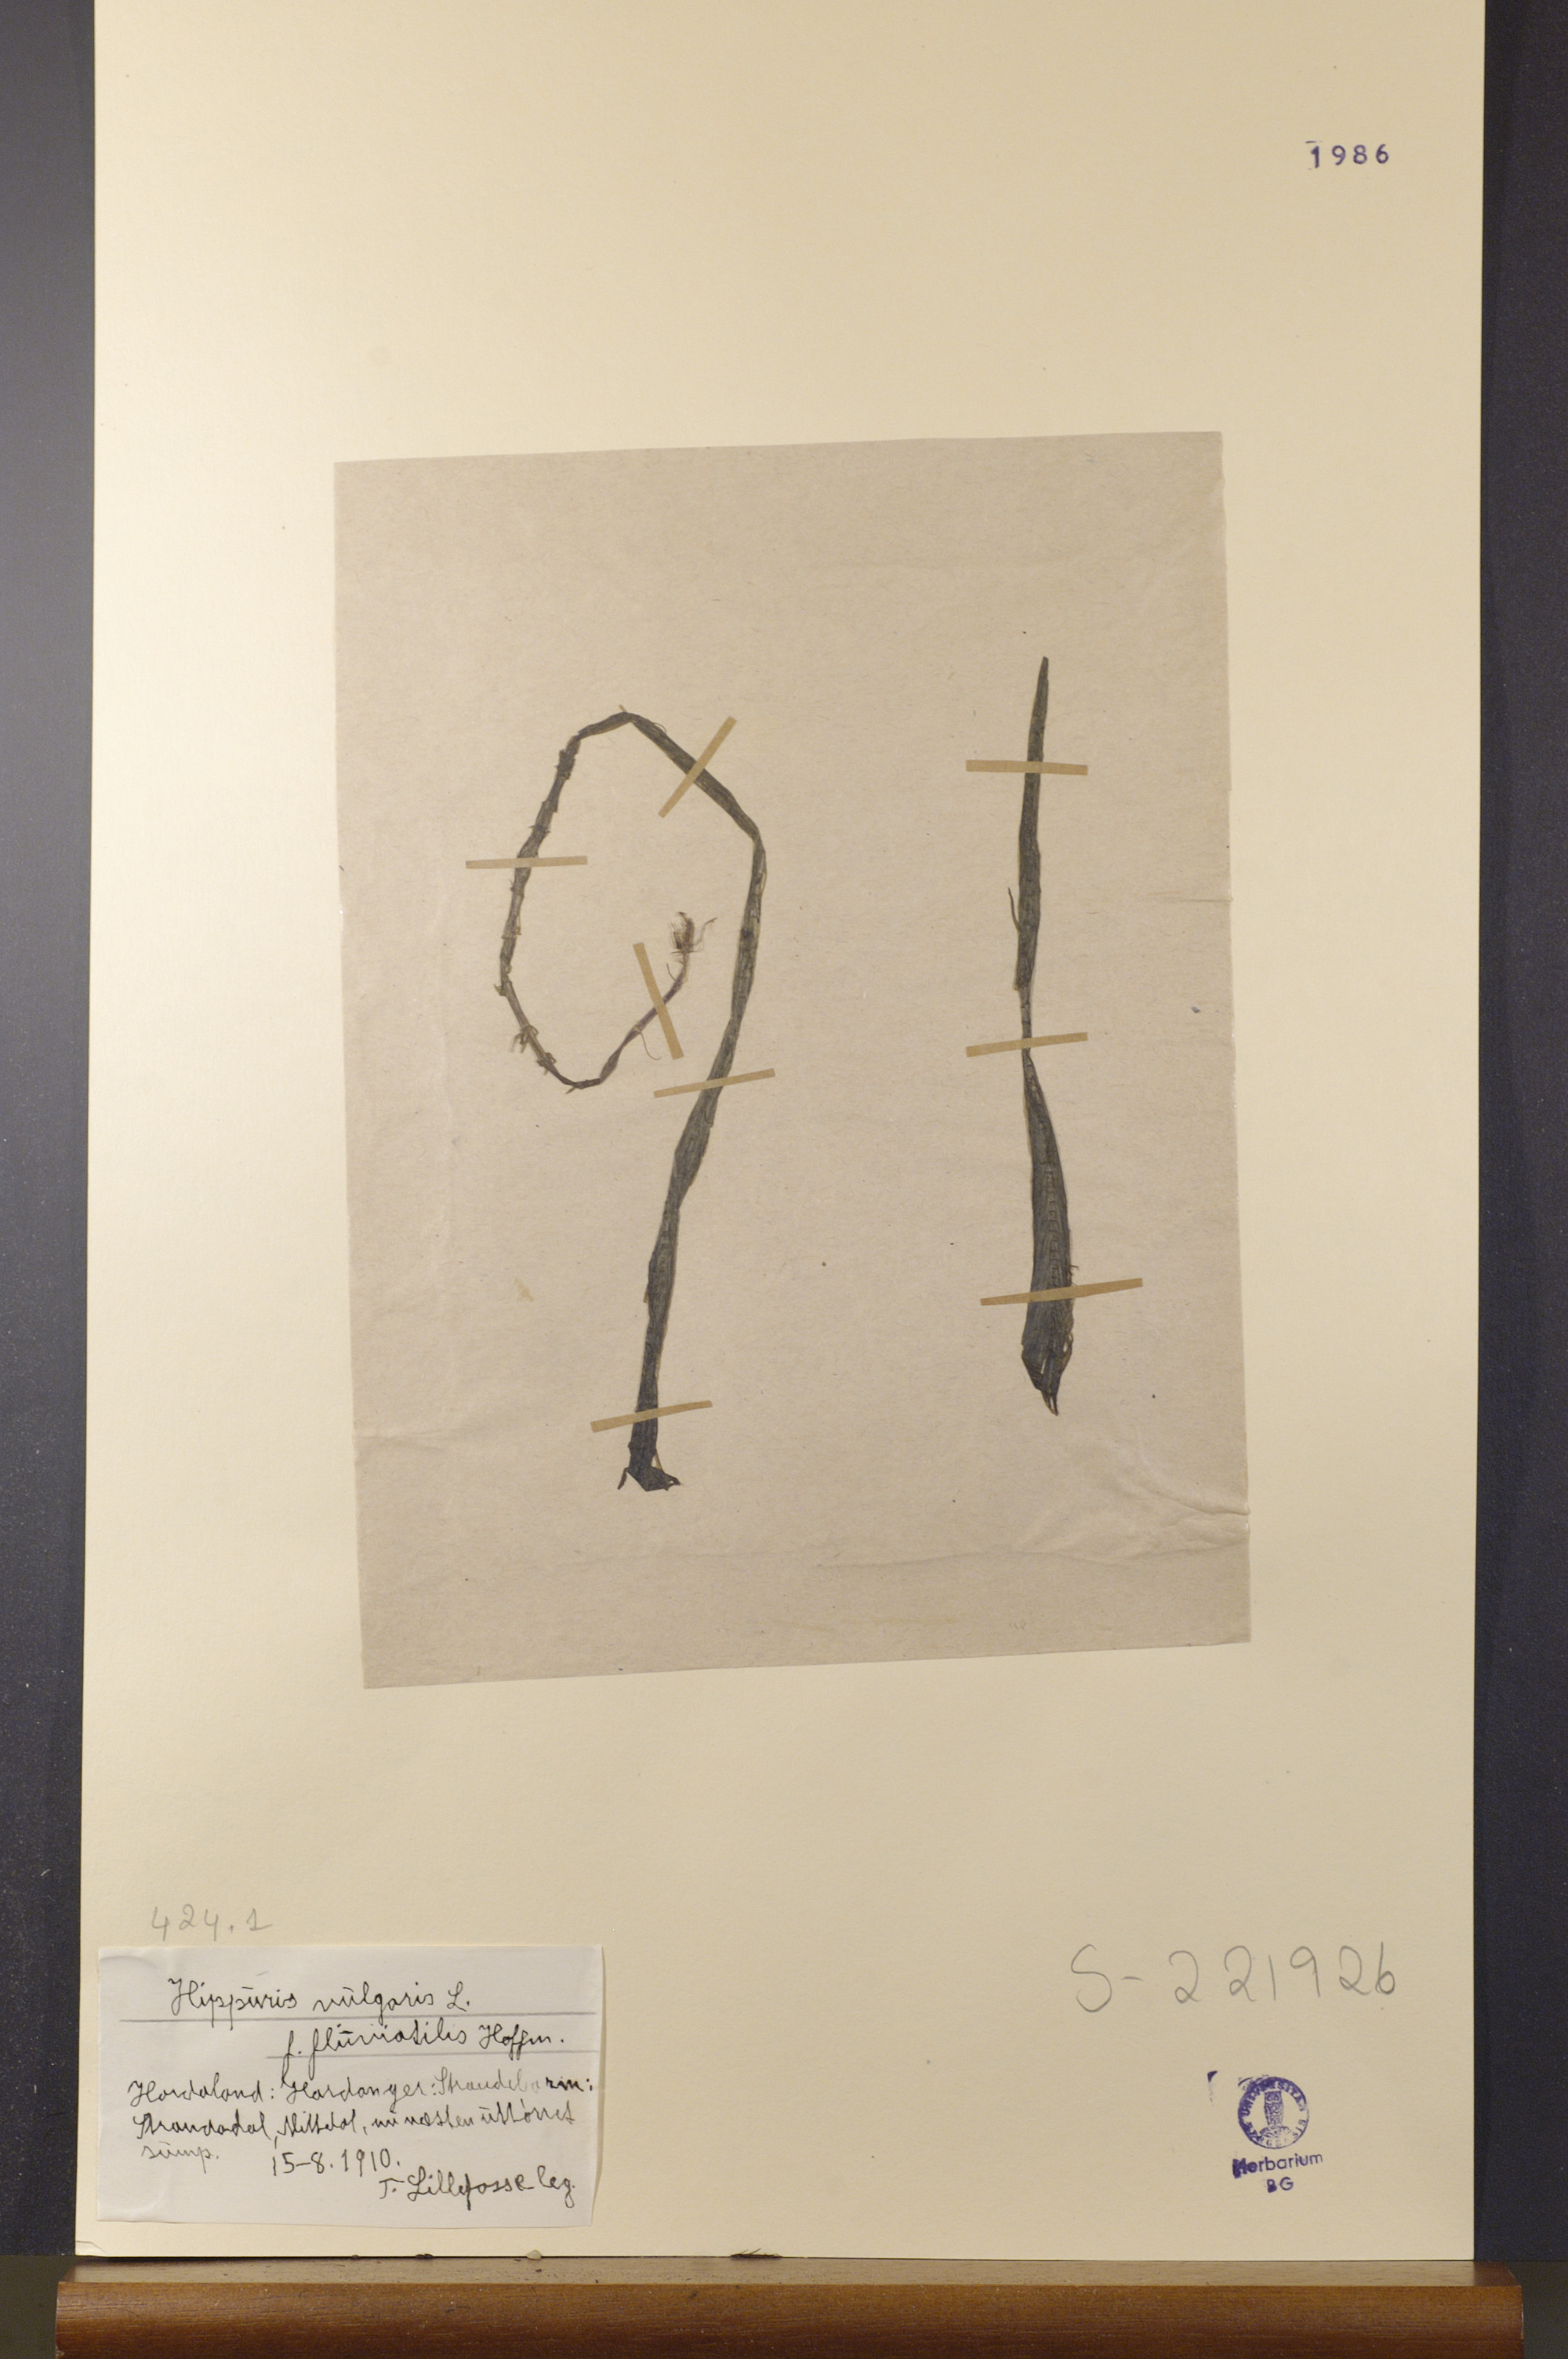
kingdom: Plantae
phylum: Tracheophyta
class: Magnoliopsida
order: Lamiales
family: Plantaginaceae
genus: Hippuris
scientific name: Hippuris vulgaris
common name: Mare's-tail
